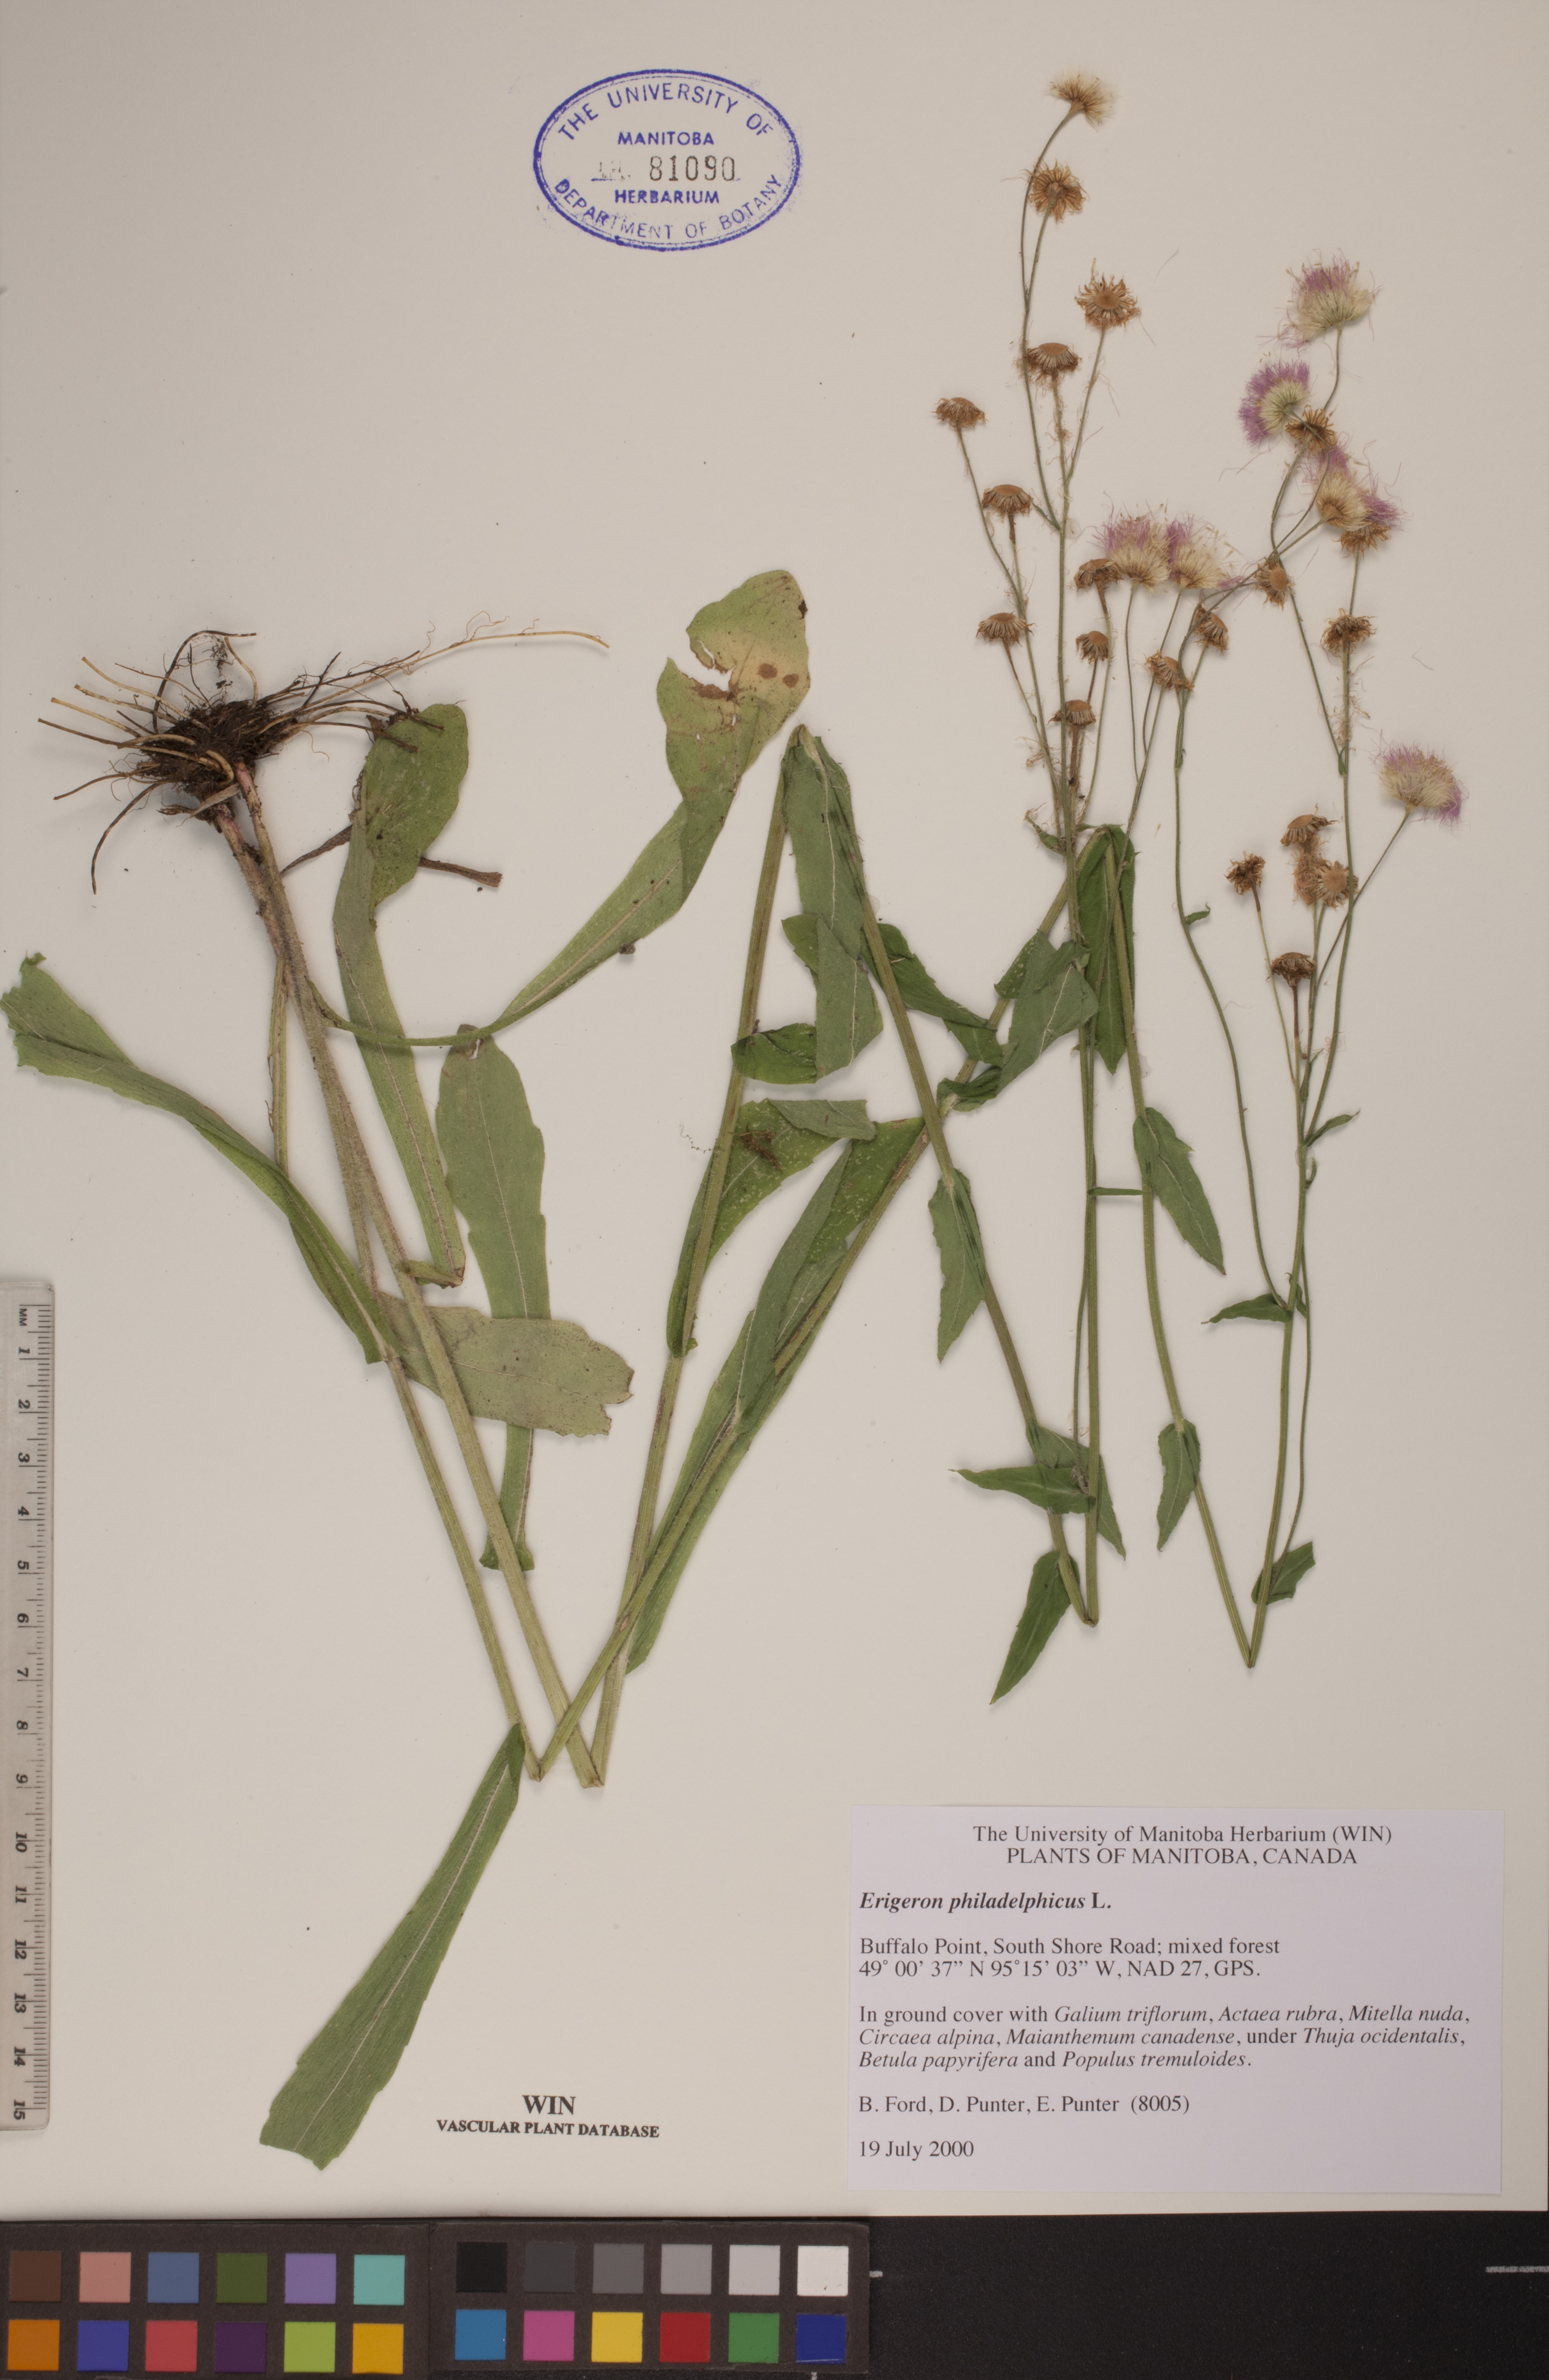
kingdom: Plantae
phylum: Tracheophyta
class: Magnoliopsida
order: Asterales
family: Asteraceae
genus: Erigeron
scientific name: Erigeron philadelphicus
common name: Robin's-plantain
